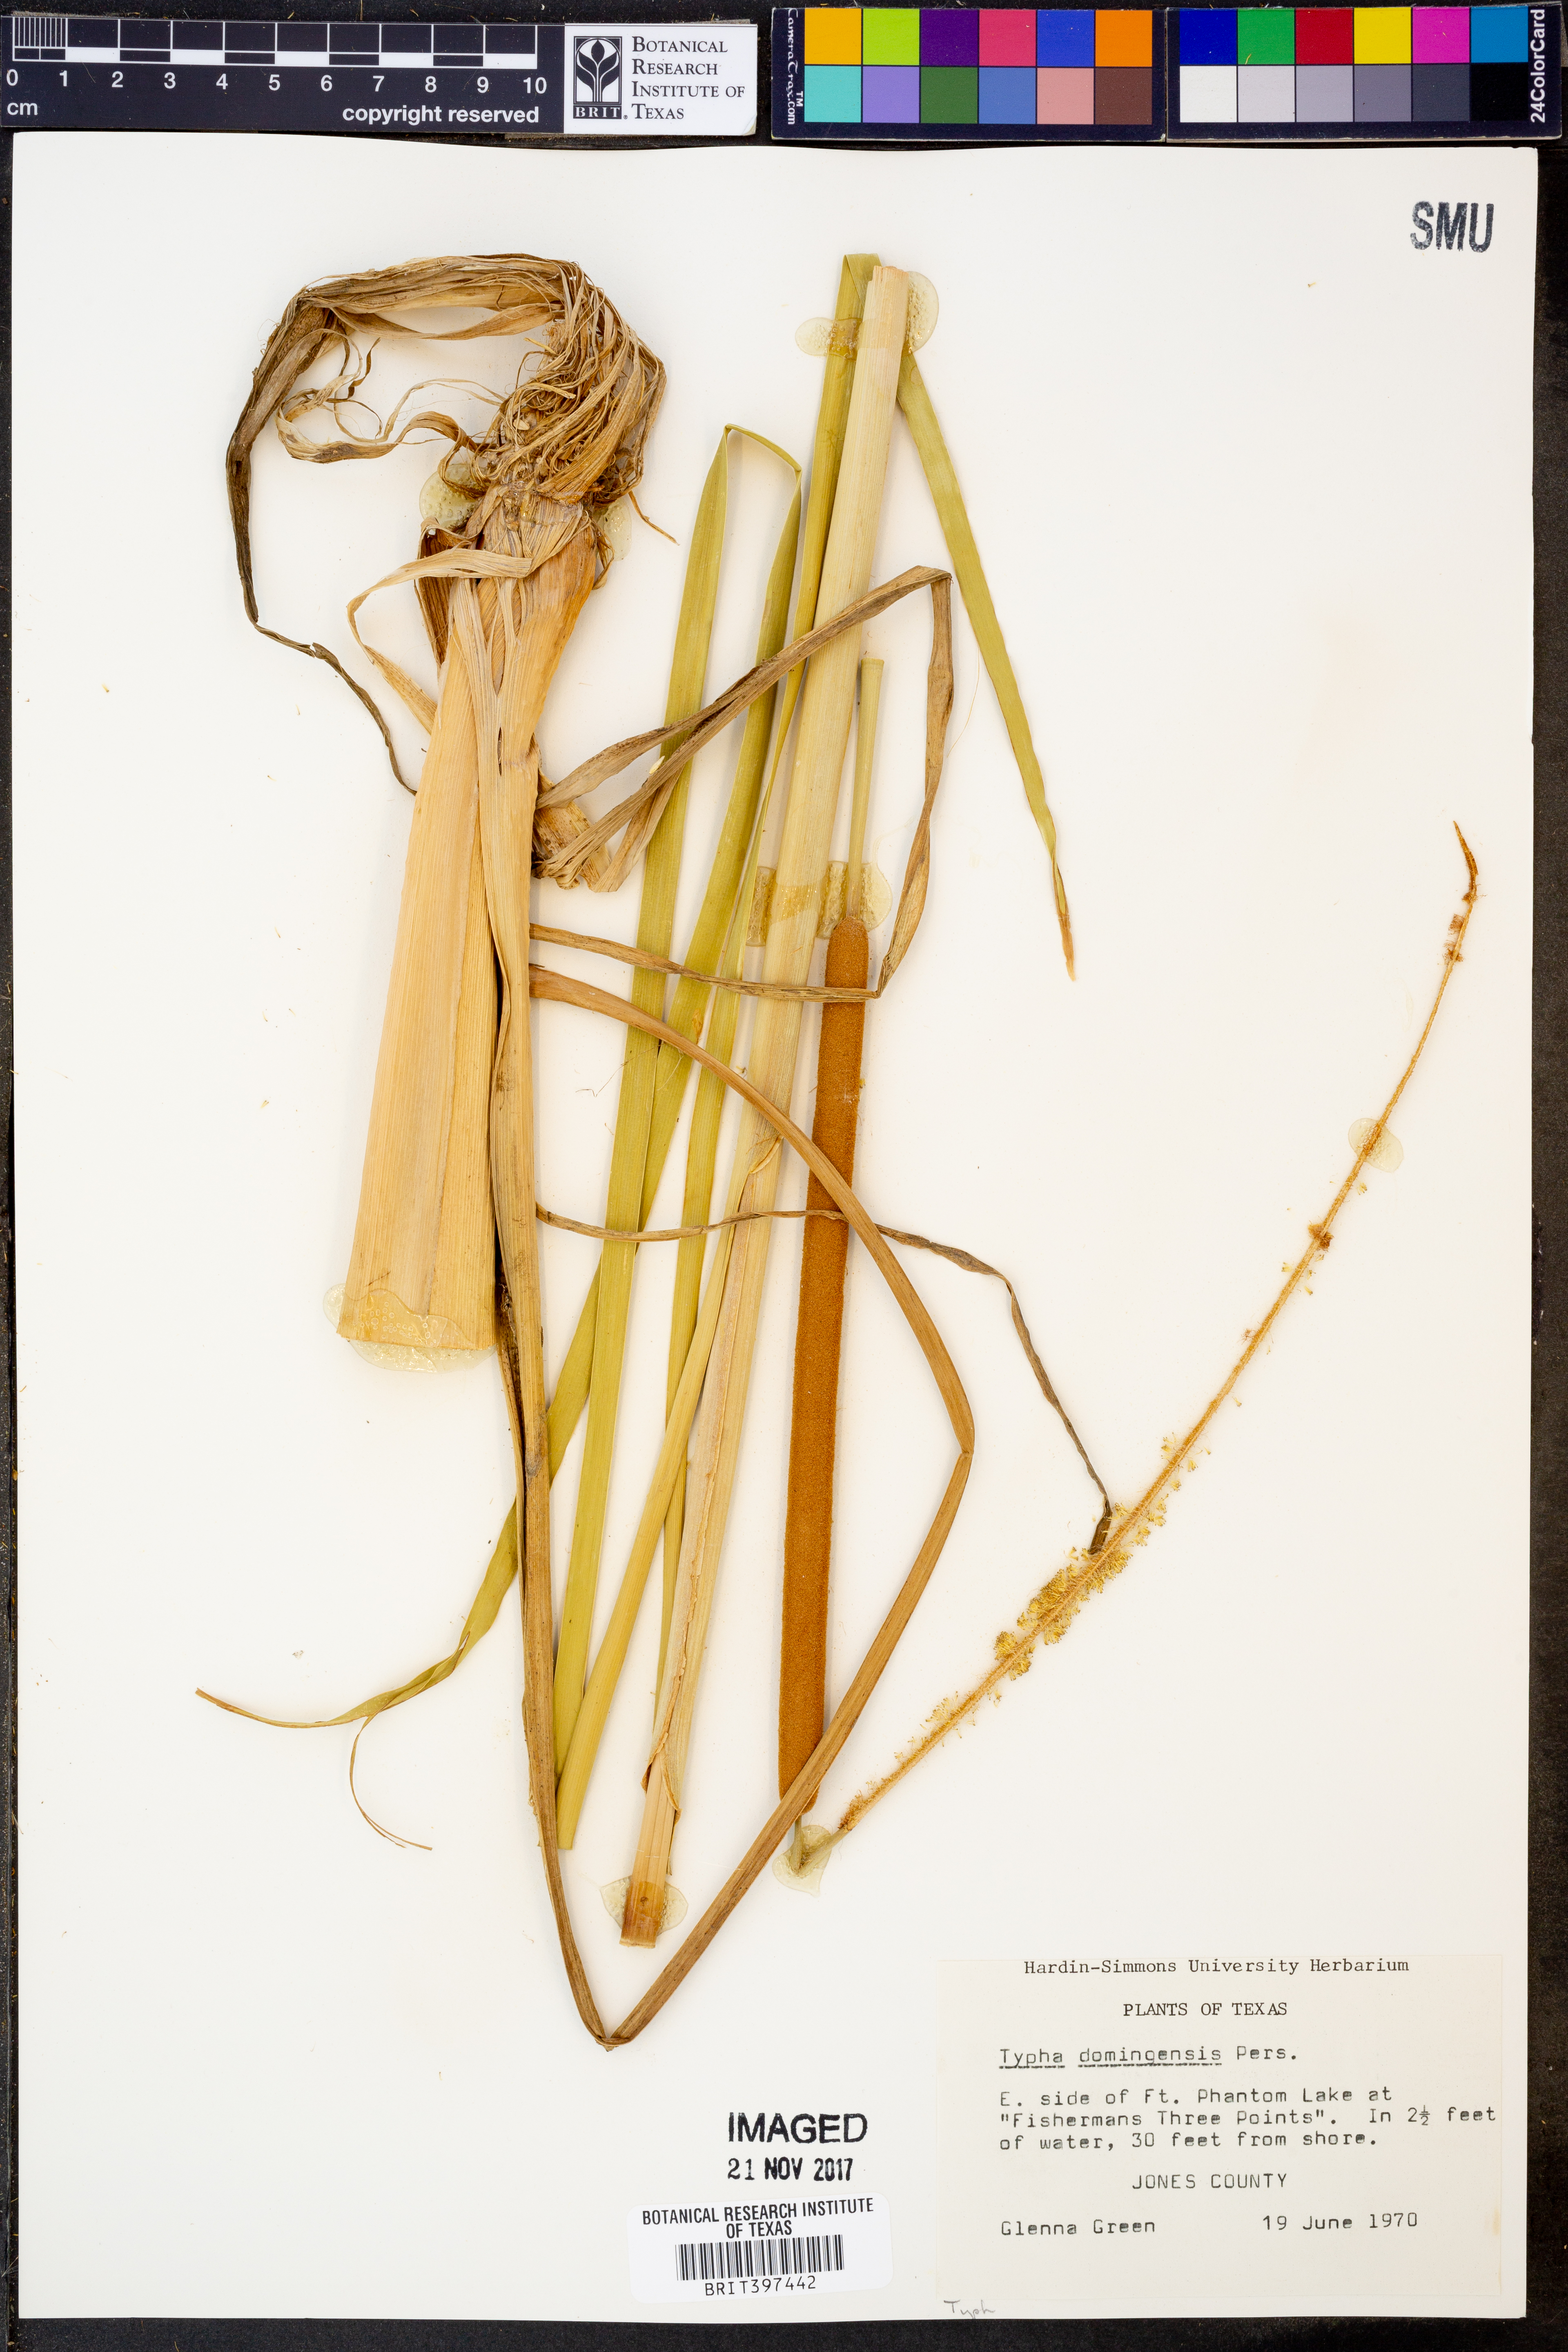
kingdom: Plantae
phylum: Tracheophyta
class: Liliopsida
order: Poales
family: Typhaceae
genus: Typha
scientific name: Typha domingensis
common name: Southern cattail
